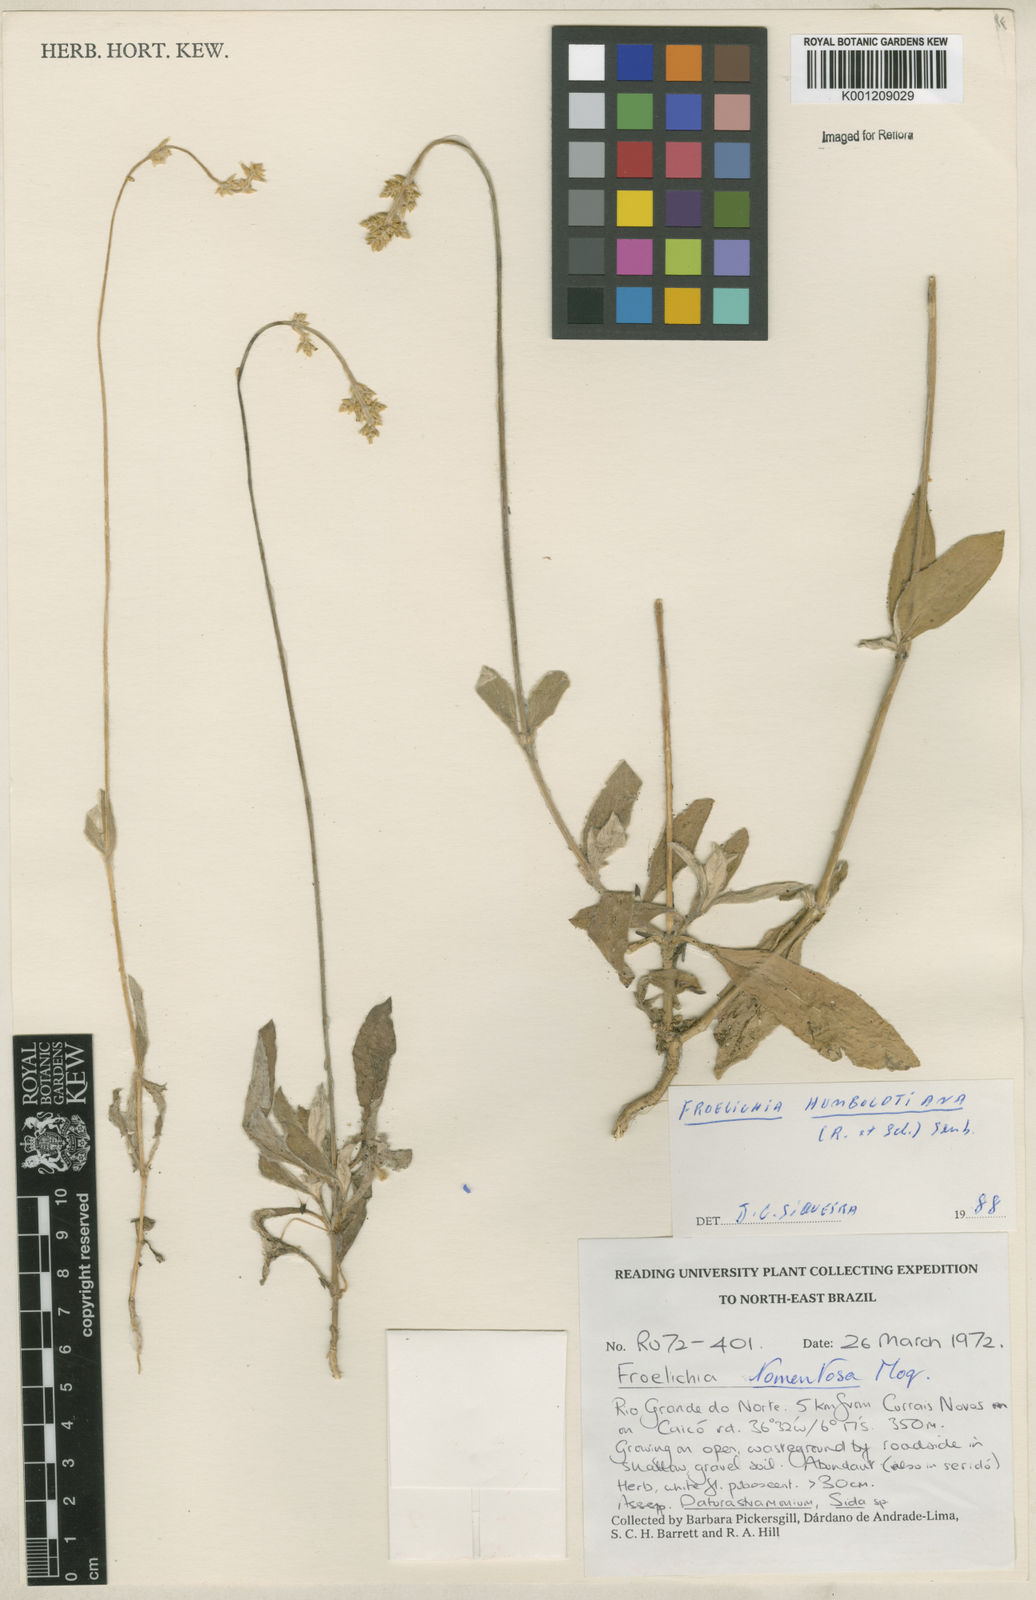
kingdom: Plantae
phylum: Tracheophyta
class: Magnoliopsida
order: Caryophyllales
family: Amaranthaceae
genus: Froelichia
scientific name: Froelichia humboldtiana
